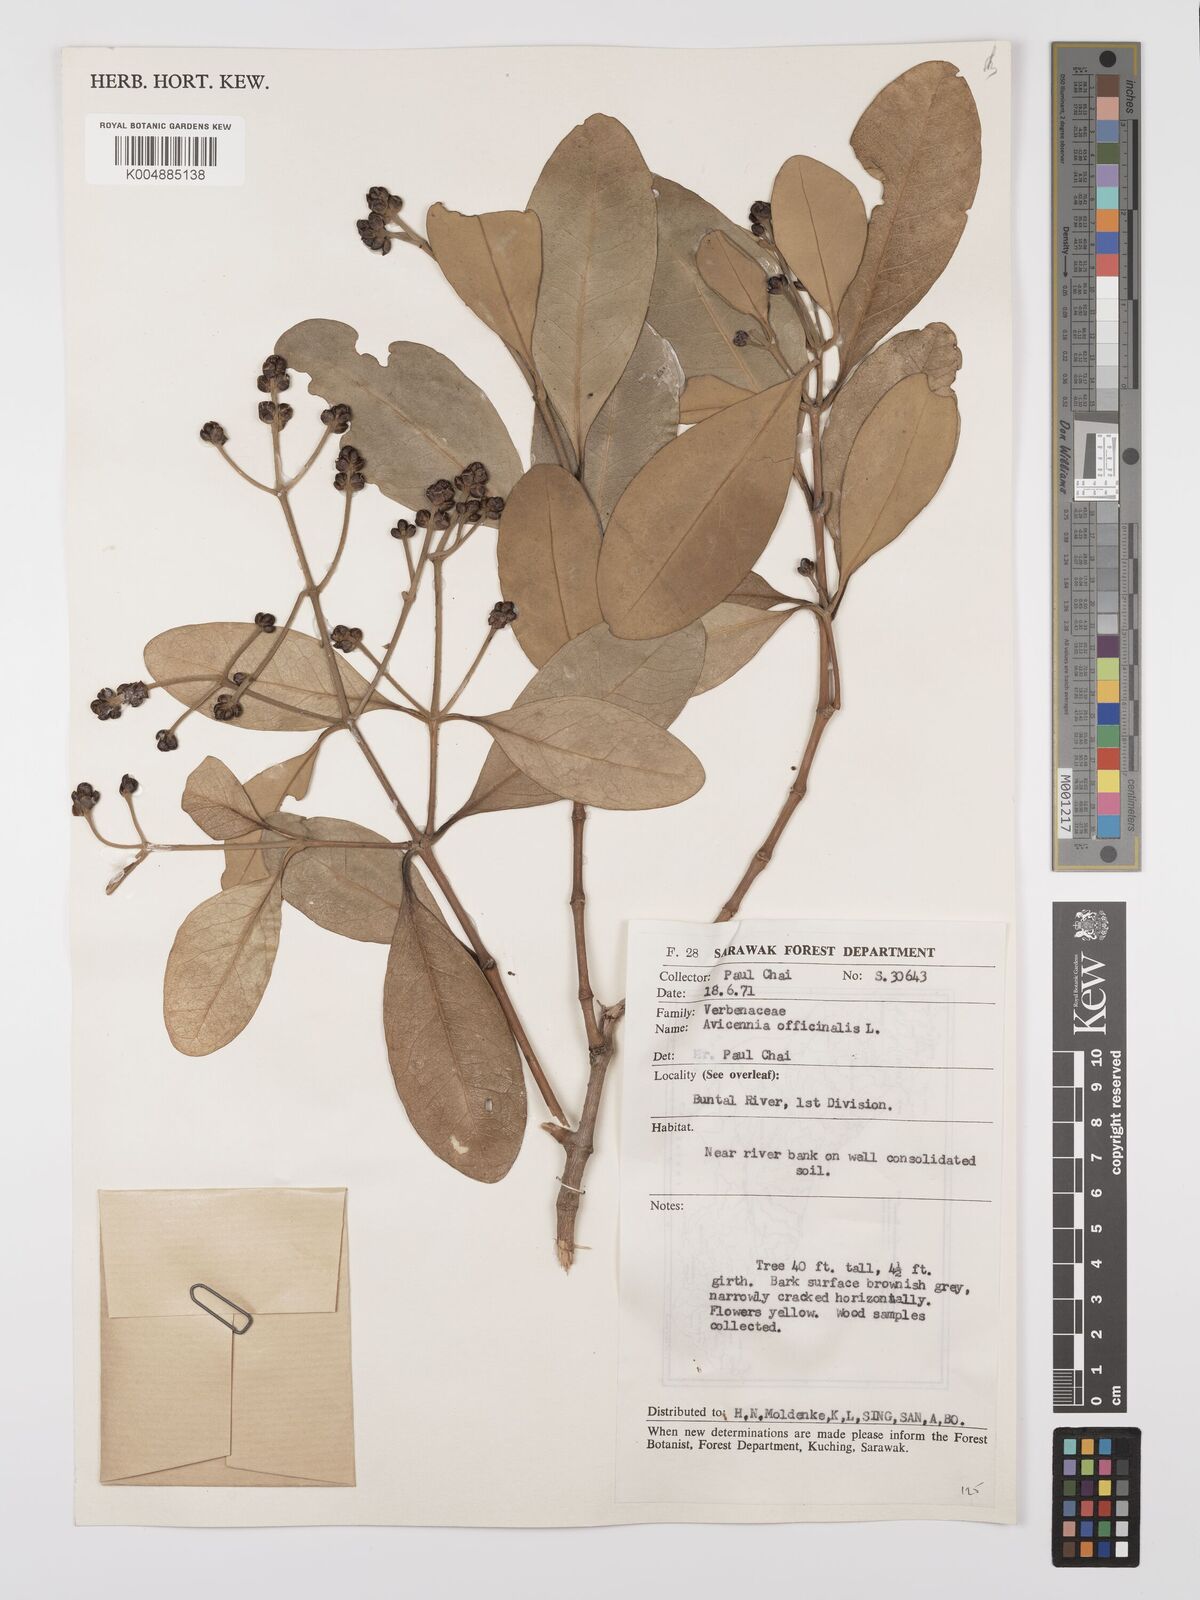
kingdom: Plantae
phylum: Tracheophyta
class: Magnoliopsida
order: Lamiales
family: Acanthaceae
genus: Avicennia
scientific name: Avicennia officinalis
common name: Baen
